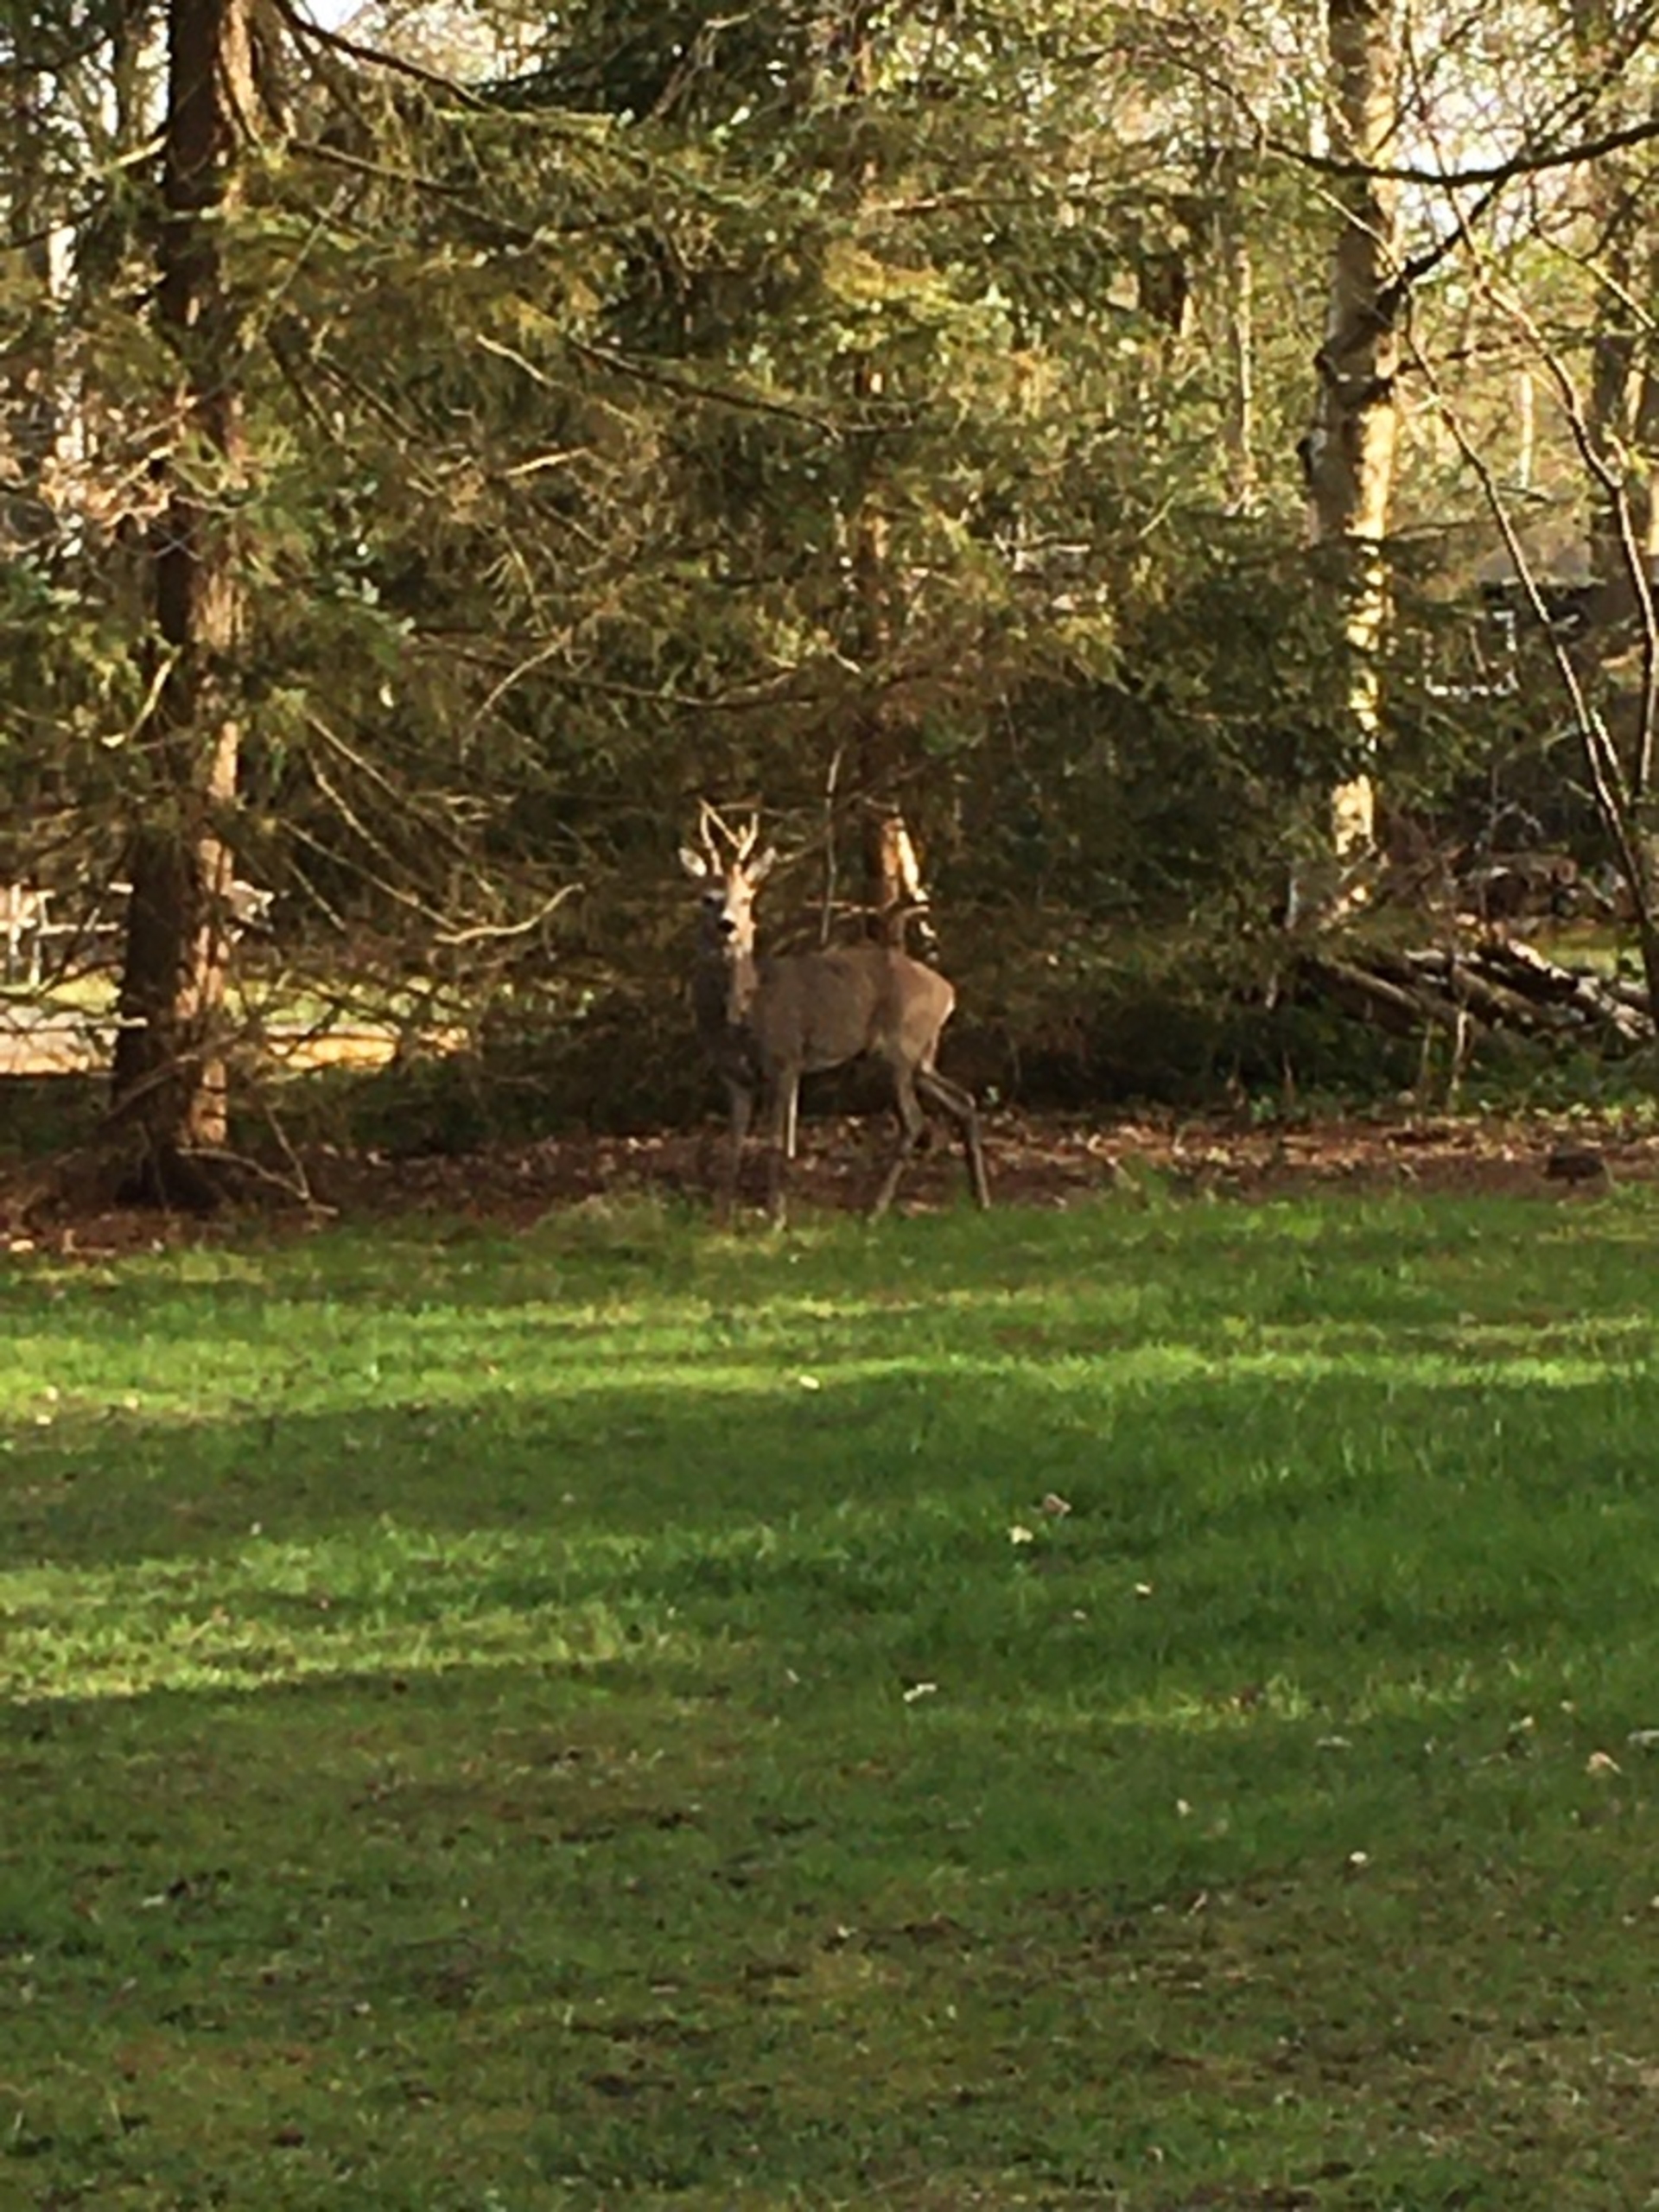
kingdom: Animalia
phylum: Chordata
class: Mammalia
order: Artiodactyla
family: Cervidae
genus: Capreolus
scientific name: Capreolus capreolus
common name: Rådyr
